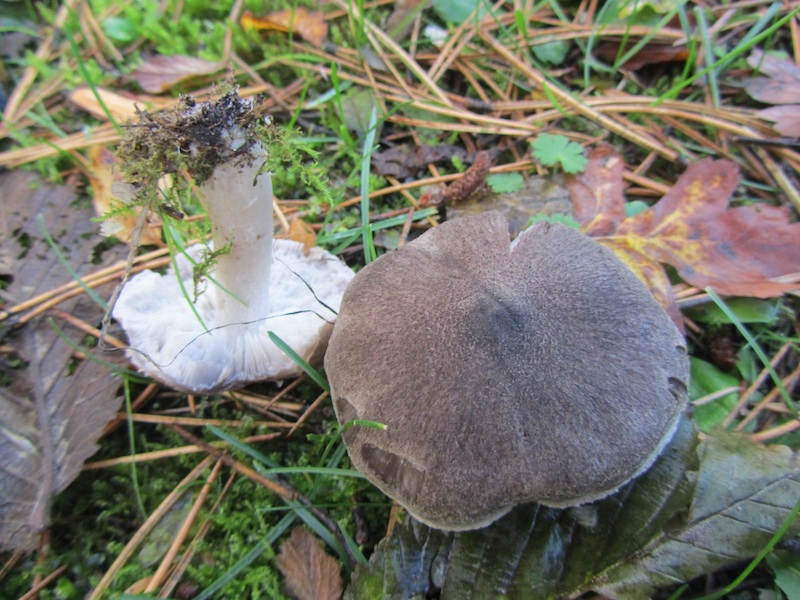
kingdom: Fungi
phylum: Basidiomycota
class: Agaricomycetes
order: Agaricales
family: Tricholomataceae
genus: Tricholoma
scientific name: Tricholoma terreum
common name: jordfarvet ridderhat
